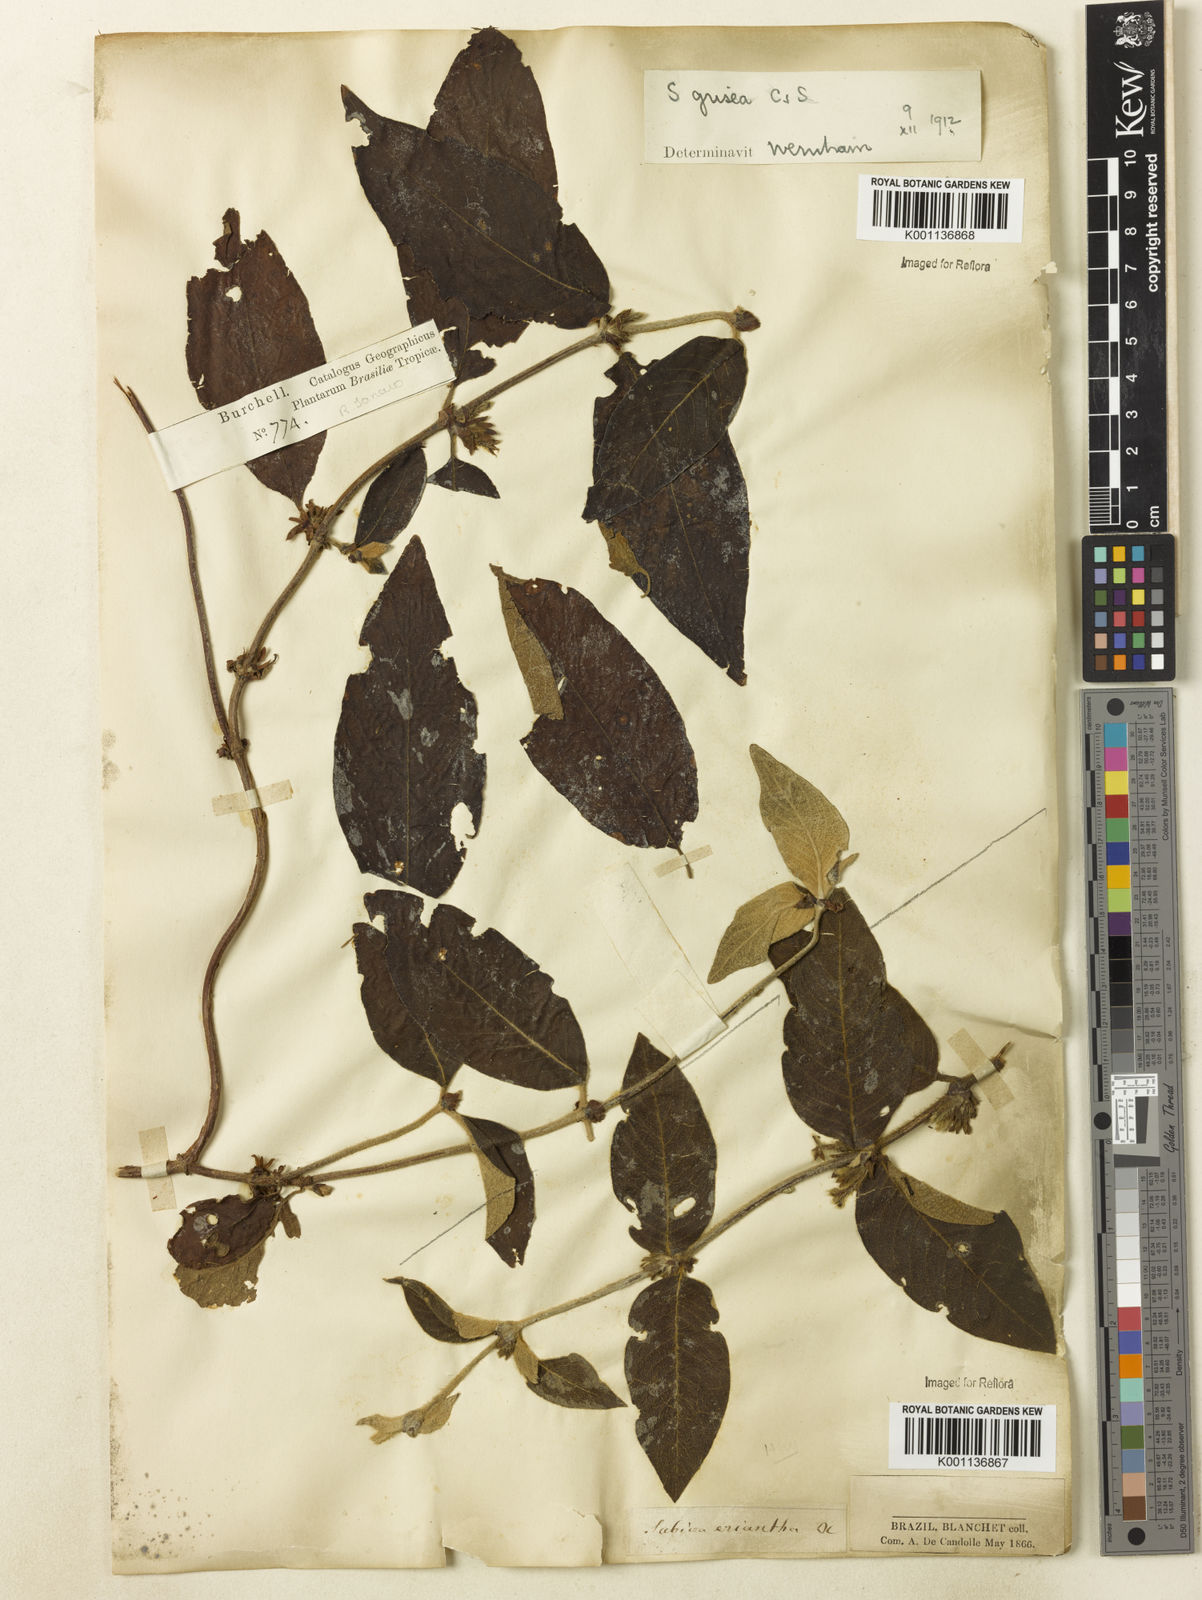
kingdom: Plantae
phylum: Tracheophyta
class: Magnoliopsida
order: Gentianales
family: Rubiaceae
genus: Sabicea
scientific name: Sabicea grisea
